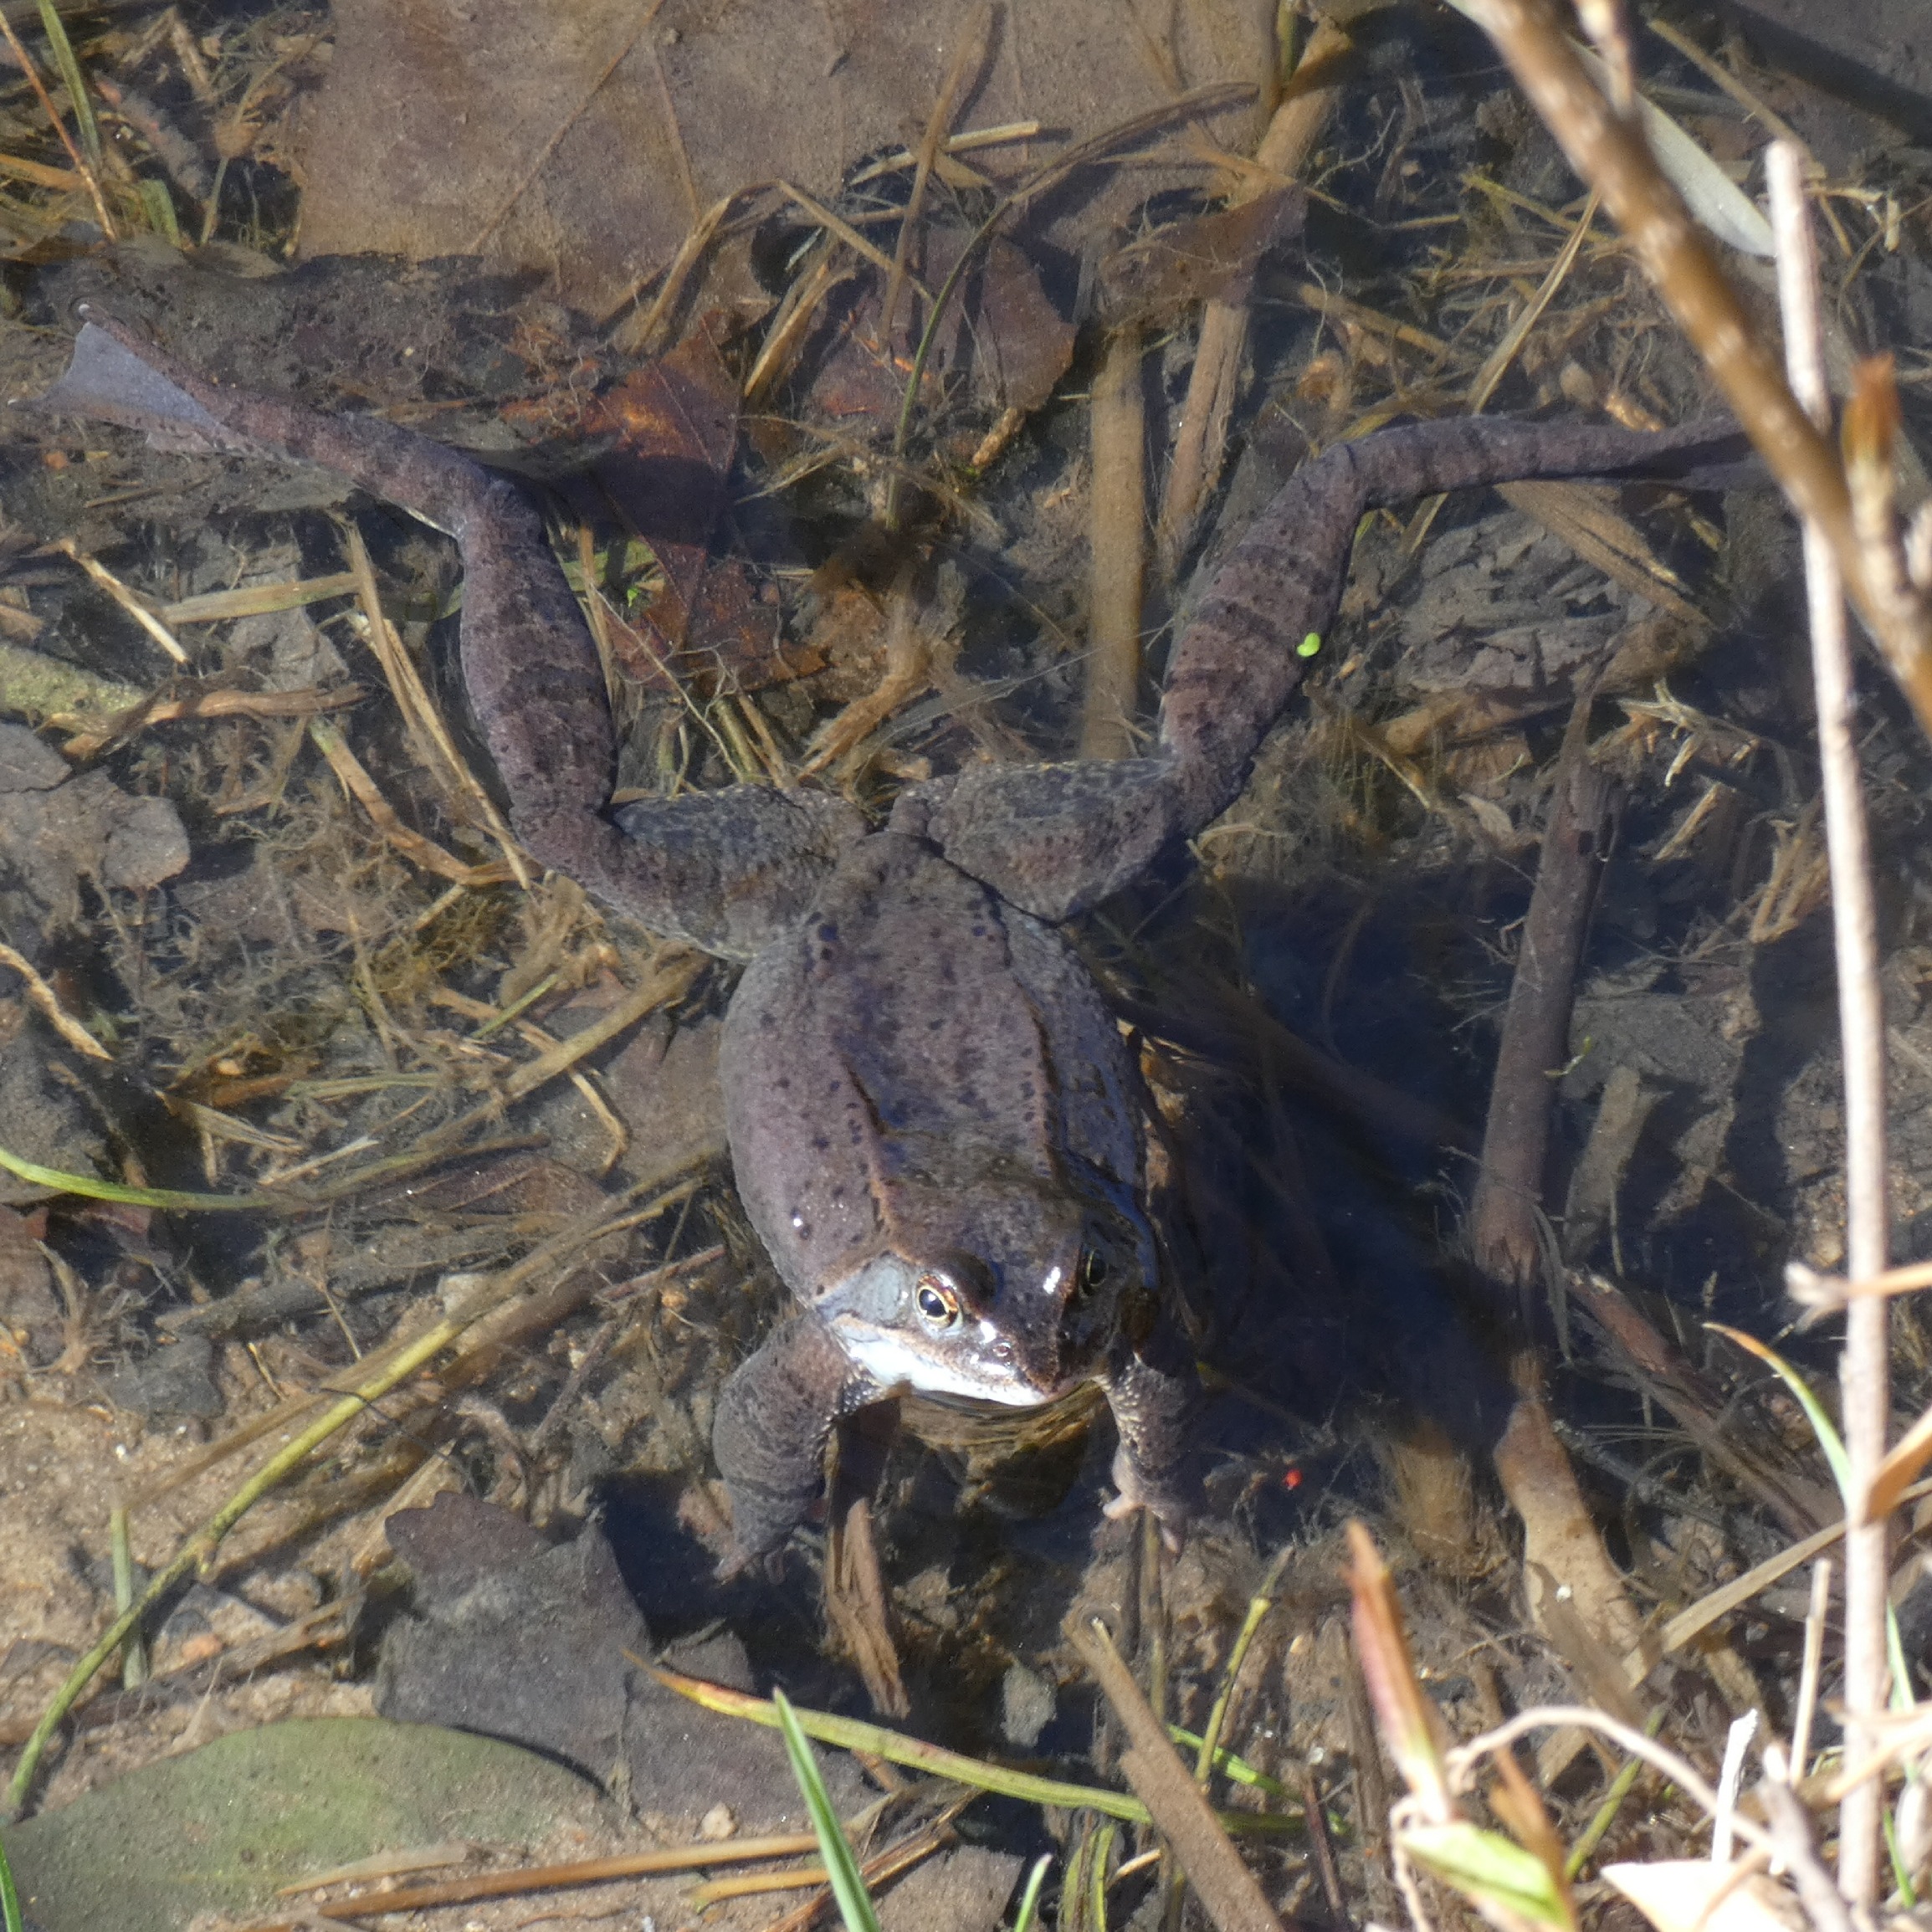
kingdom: Animalia
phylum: Chordata
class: Amphibia
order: Anura
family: Ranidae
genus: Rana
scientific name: Rana temporaria
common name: Butsnudet frø
